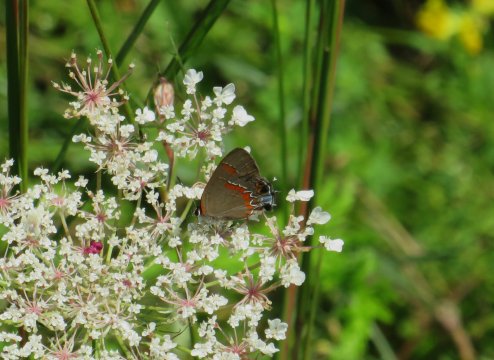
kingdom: Animalia
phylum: Arthropoda
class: Insecta
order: Lepidoptera
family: Lycaenidae
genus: Calycopis
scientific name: Calycopis cecrops
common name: Red-banded Hairstreak
